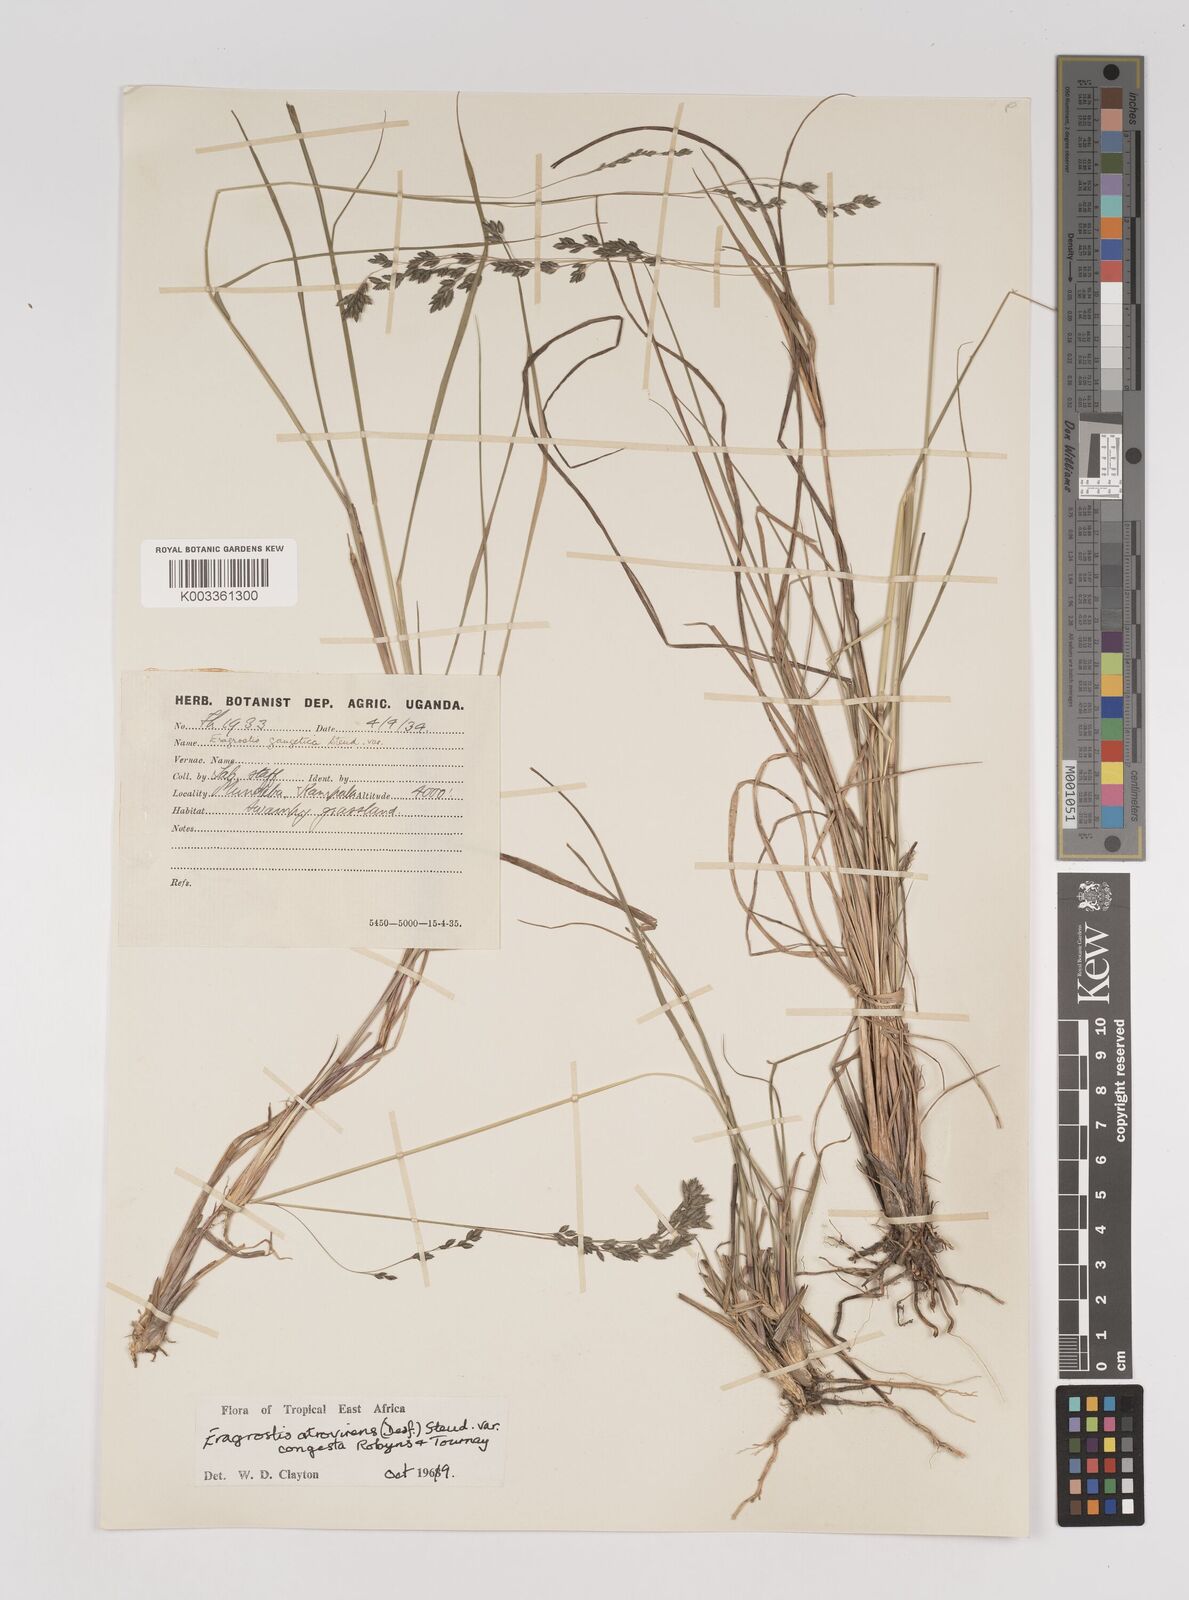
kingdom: Plantae
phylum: Tracheophyta
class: Liliopsida
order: Poales
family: Poaceae
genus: Eragrostis
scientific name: Eragrostis botryodes
